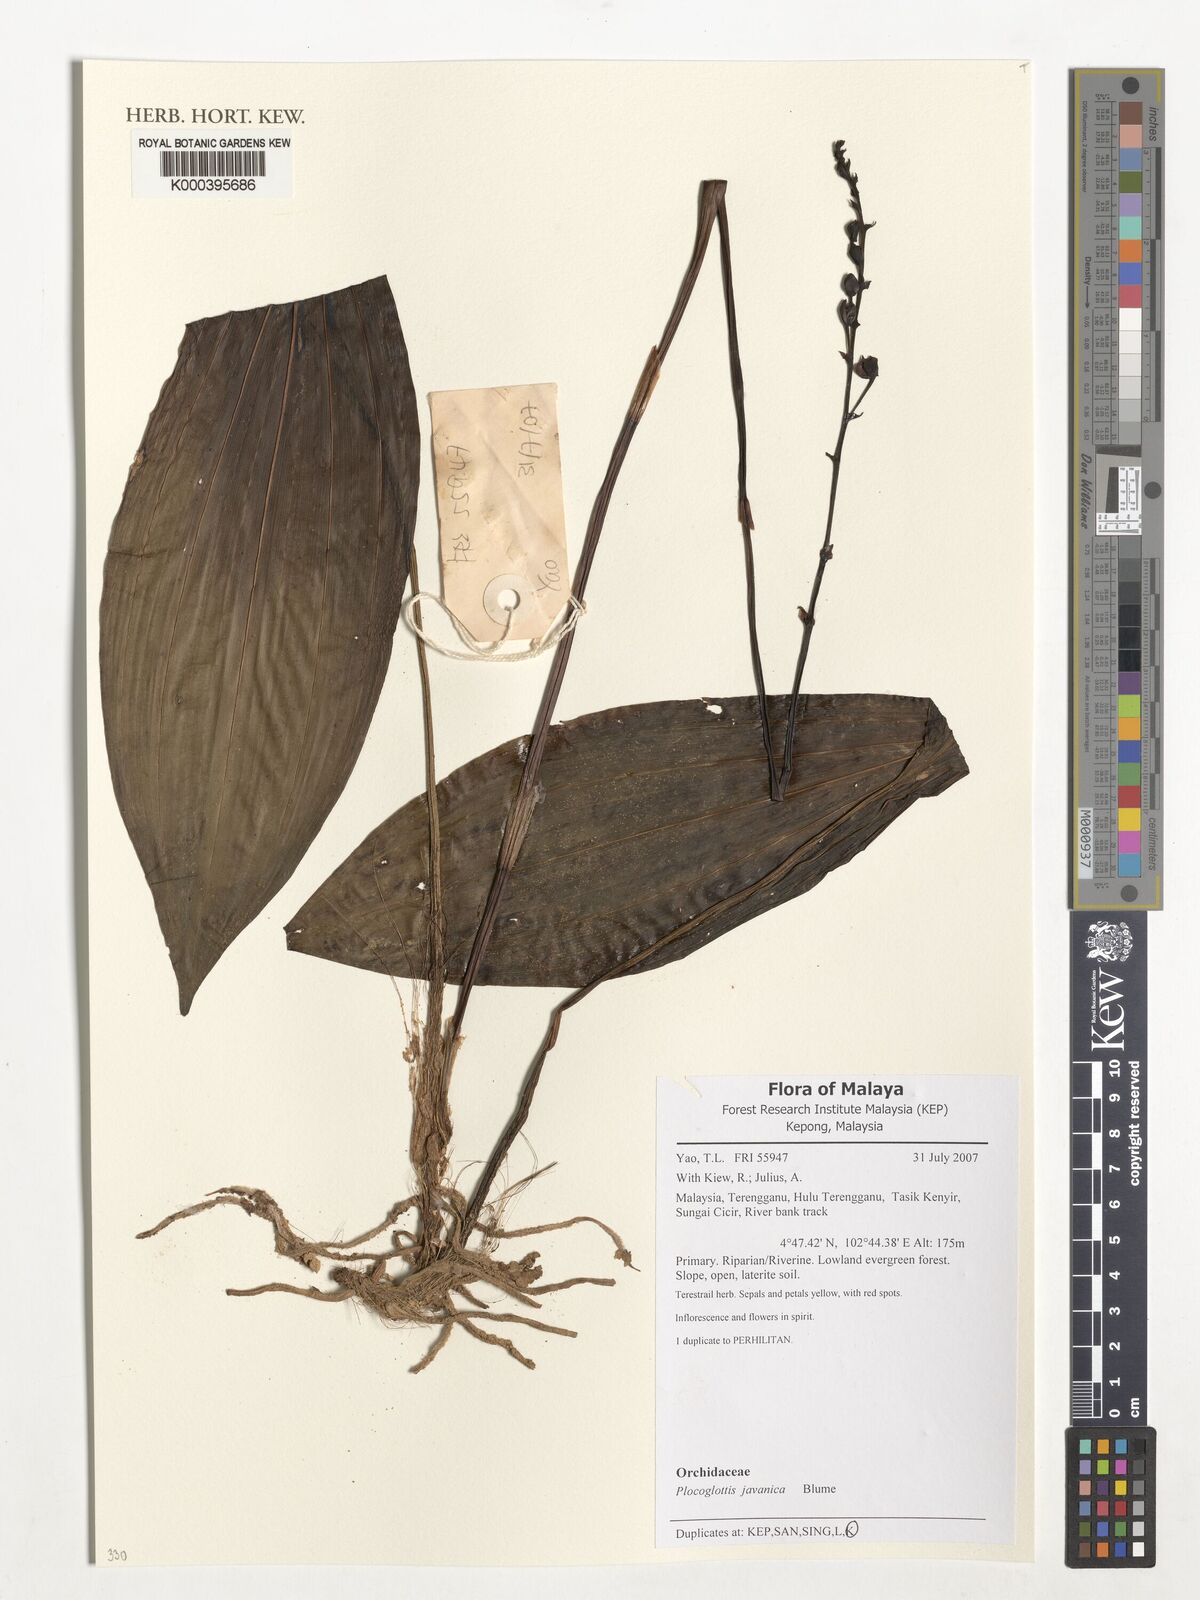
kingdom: Plantae
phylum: Tracheophyta
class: Liliopsida
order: Asparagales
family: Orchidaceae
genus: Plocoglottis
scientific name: Plocoglottis javanica
